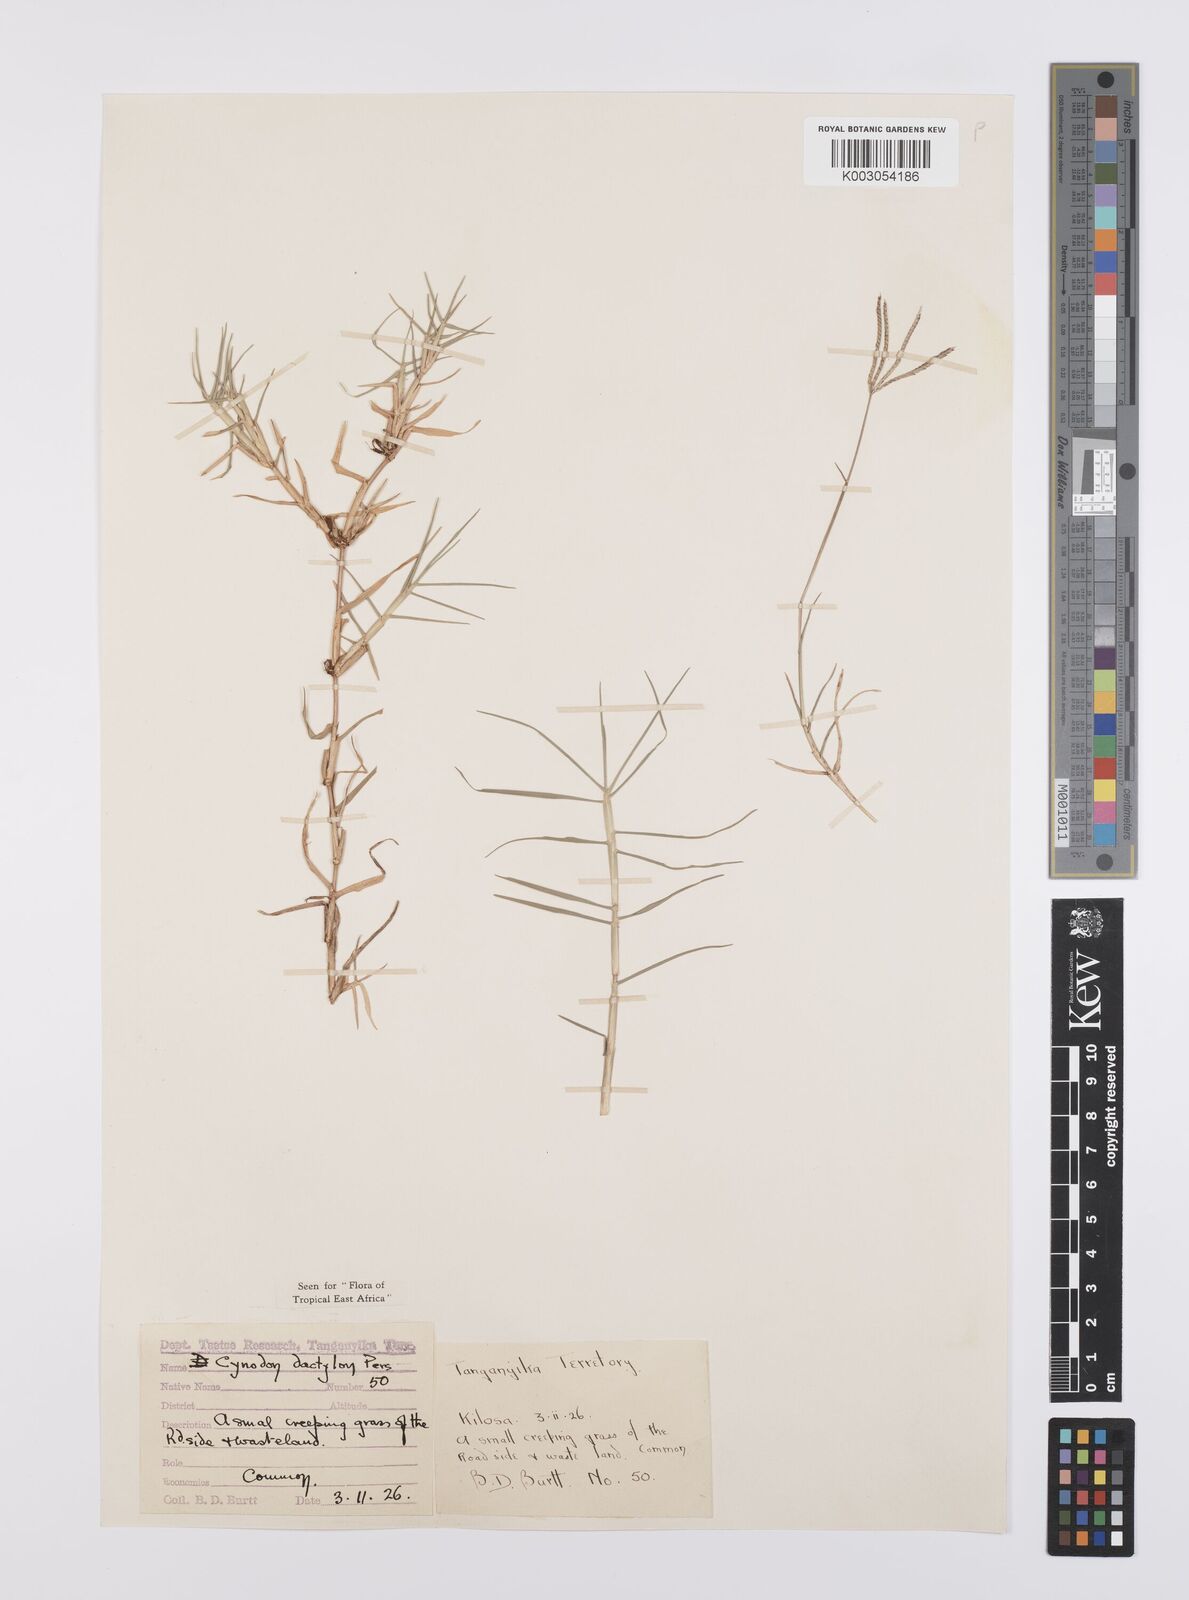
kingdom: Plantae
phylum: Tracheophyta
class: Liliopsida
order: Poales
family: Poaceae
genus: Cynodon
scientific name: Cynodon dactylon
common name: Bermuda grass
